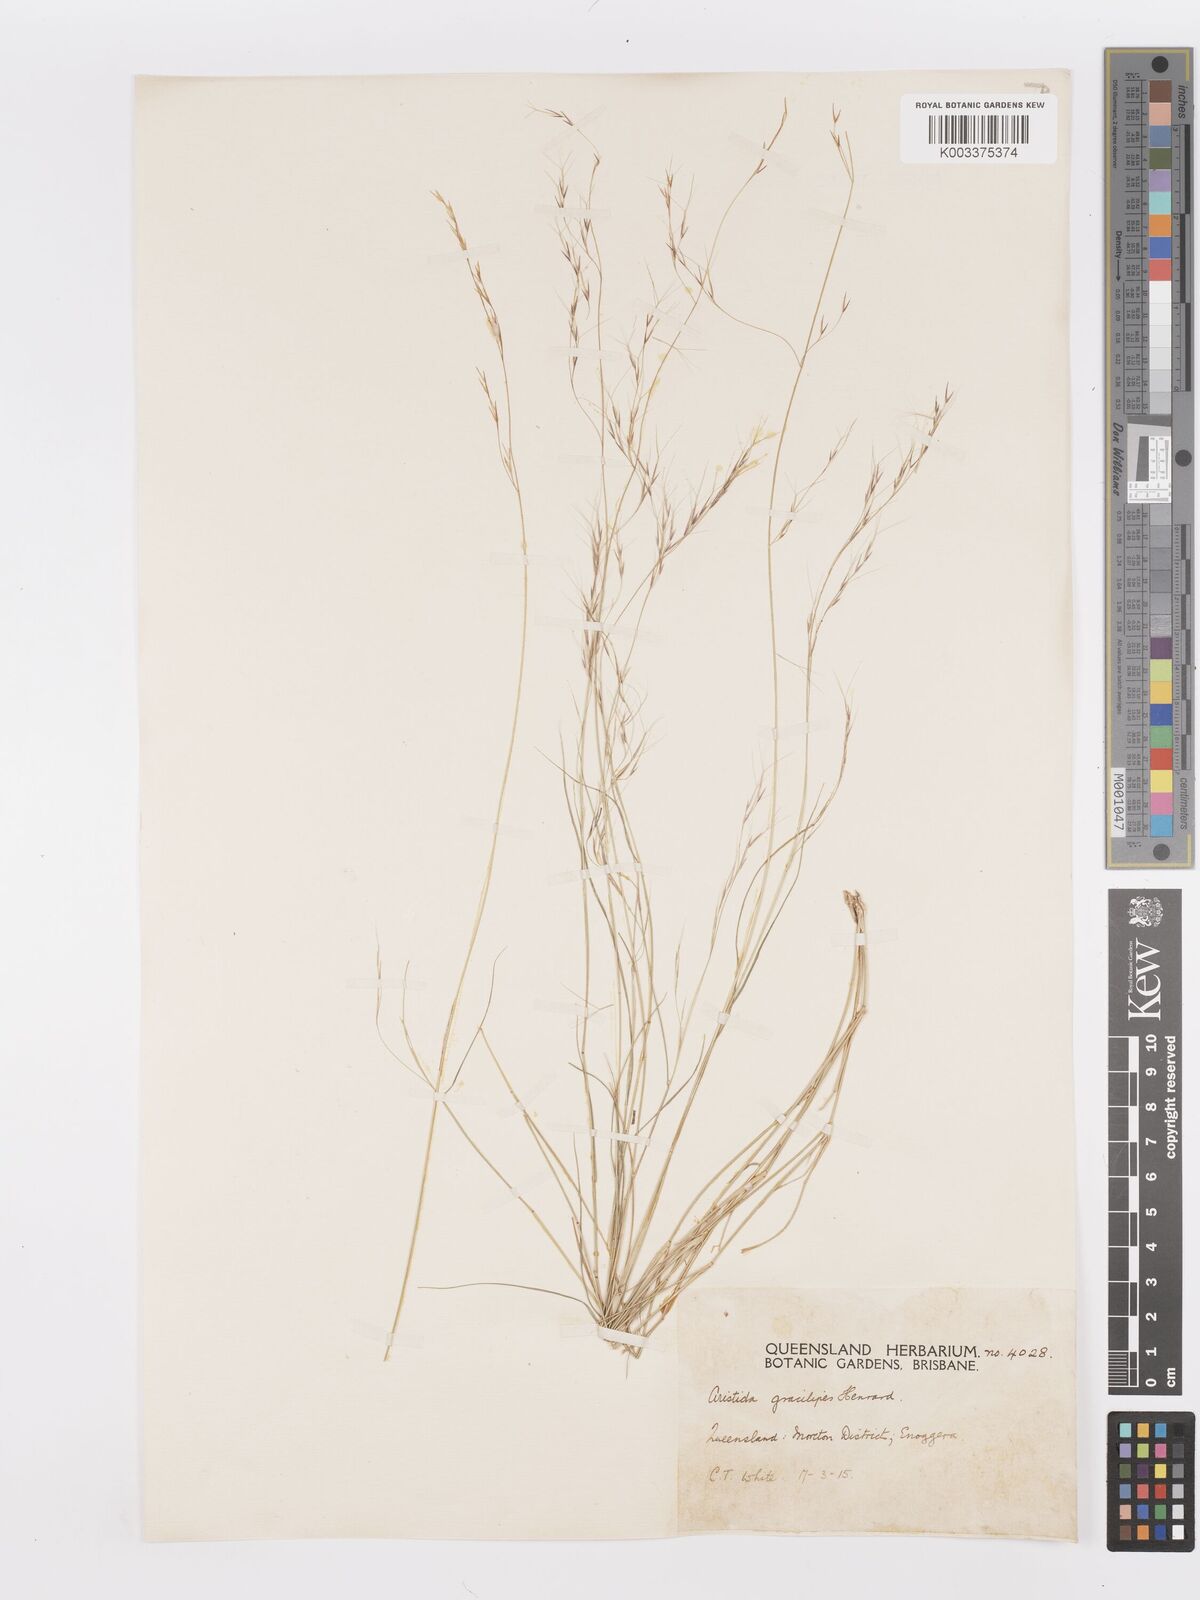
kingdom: Plantae
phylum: Tracheophyta
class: Liliopsida
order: Poales
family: Poaceae
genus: Aristida
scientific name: Aristida gracilipes
